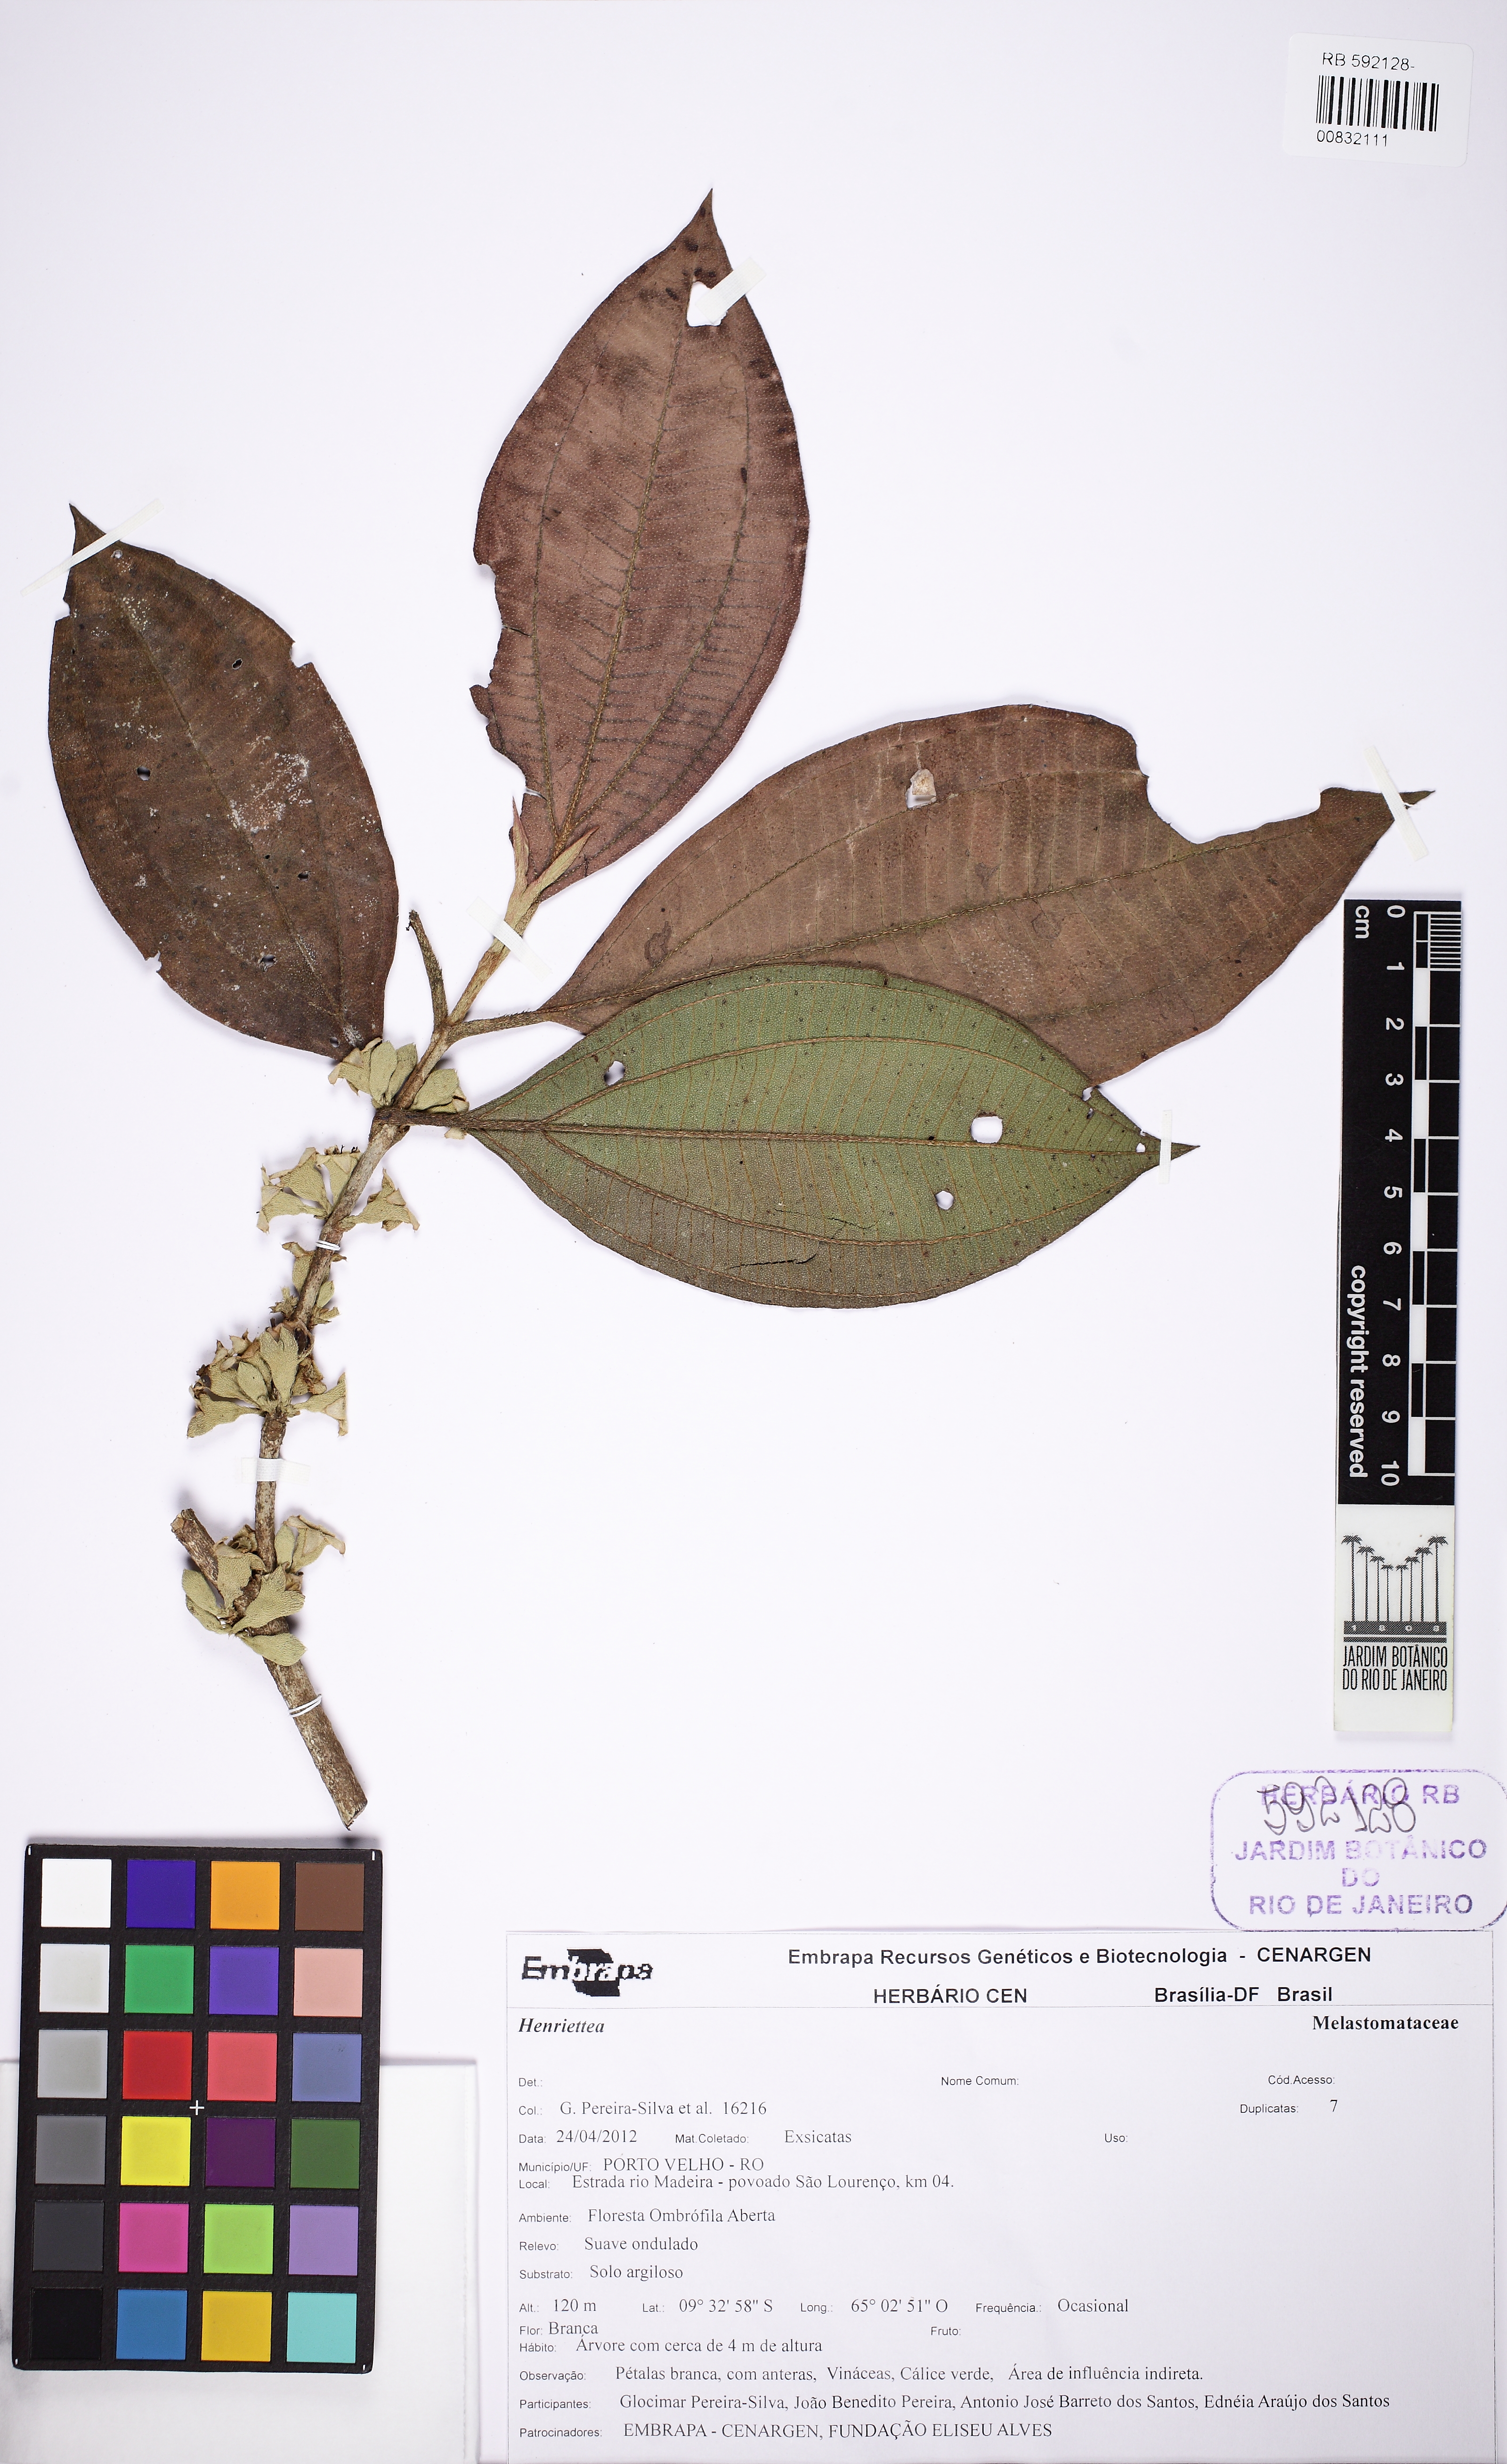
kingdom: Plantae
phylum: Tracheophyta
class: Magnoliopsida
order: Myrtales
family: Melastomataceae
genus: Henriettea
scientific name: Henriettea
